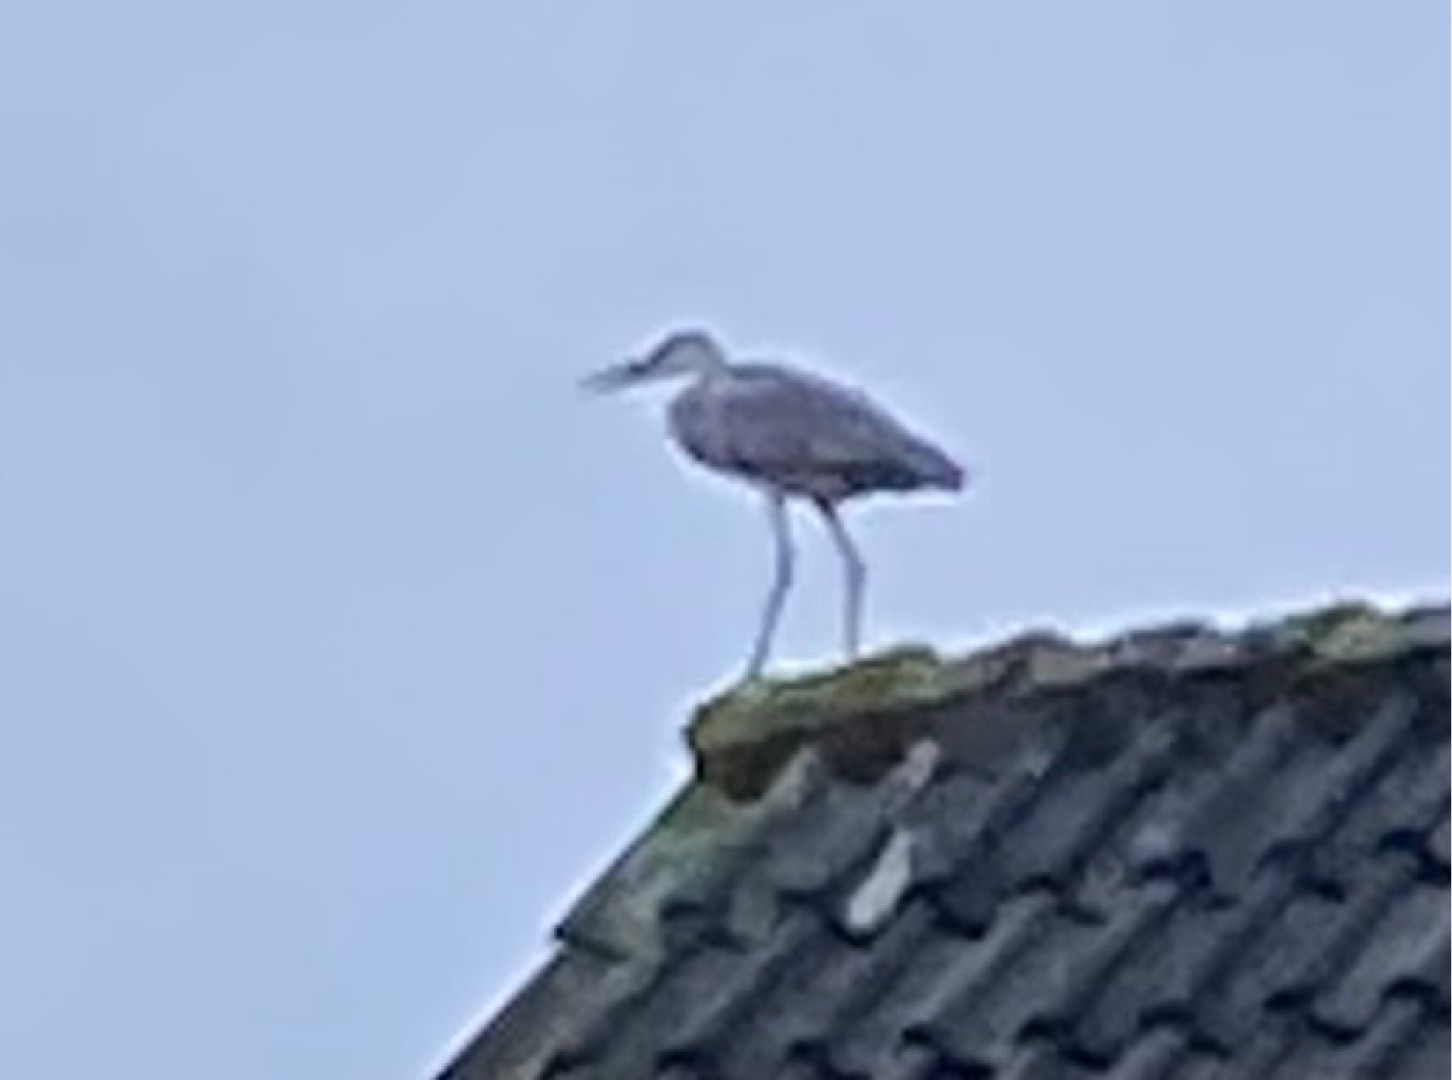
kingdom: Animalia
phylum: Chordata
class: Aves
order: Pelecaniformes
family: Ardeidae
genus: Ardea
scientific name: Ardea cinerea
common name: Fiskehejre
